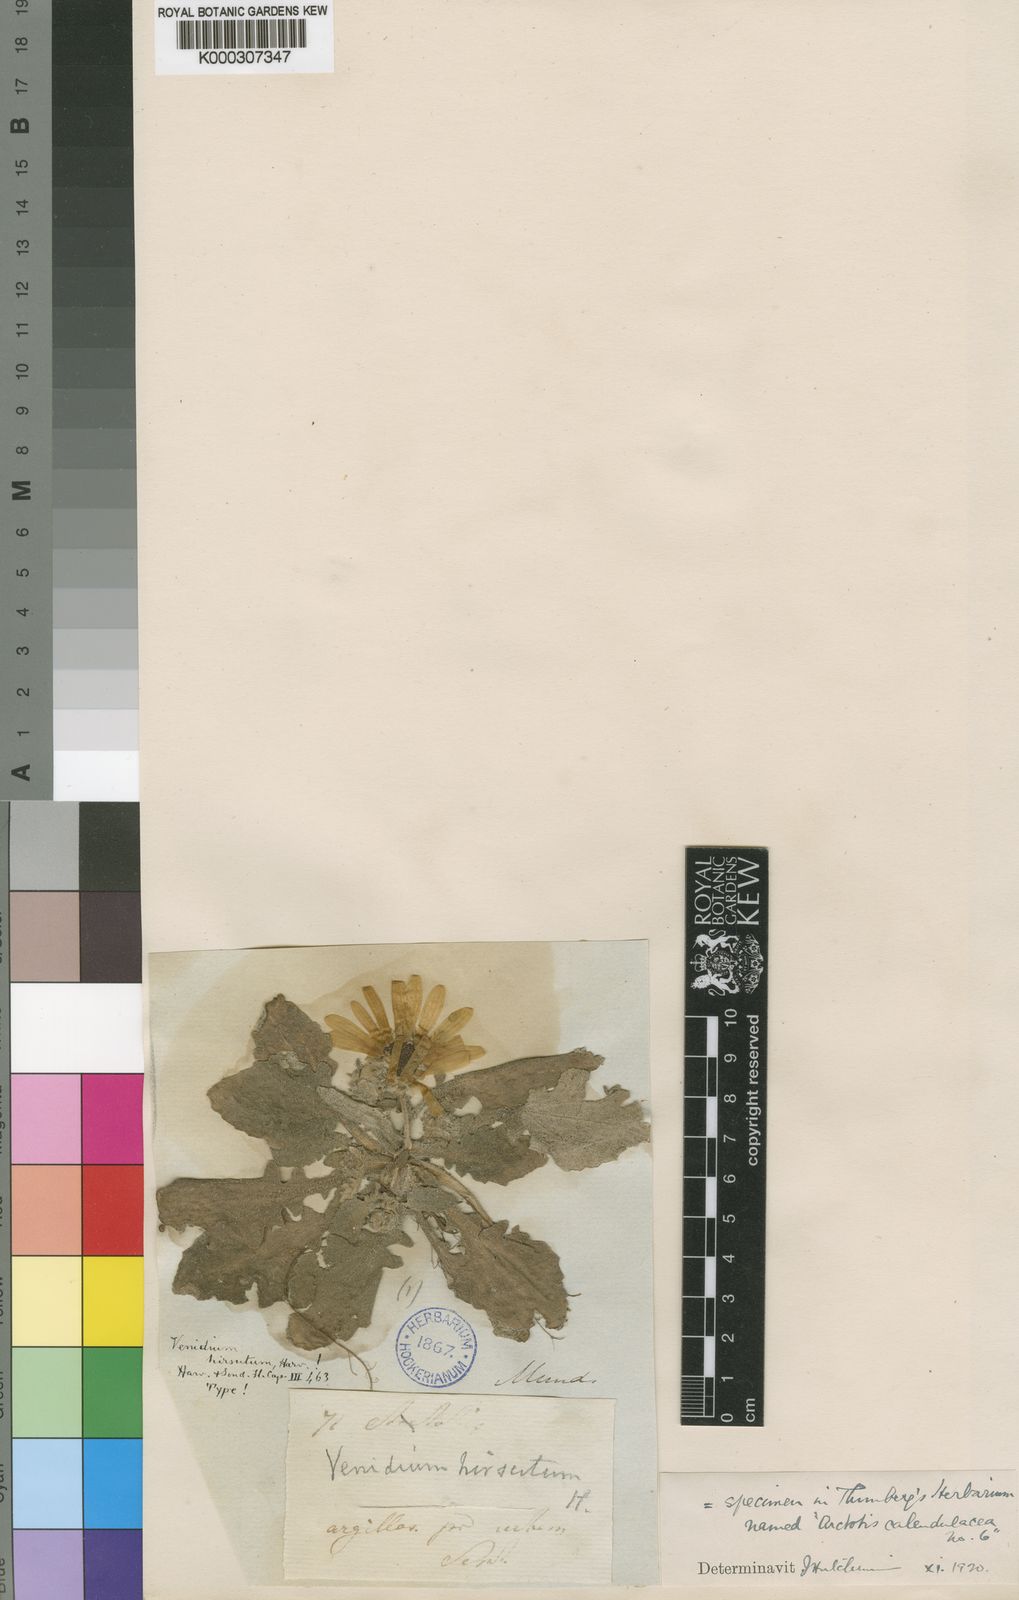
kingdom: Plantae
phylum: Tracheophyta
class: Magnoliopsida
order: Asterales
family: Asteraceae
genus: Arctotis
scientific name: Arctotis hirsuta
